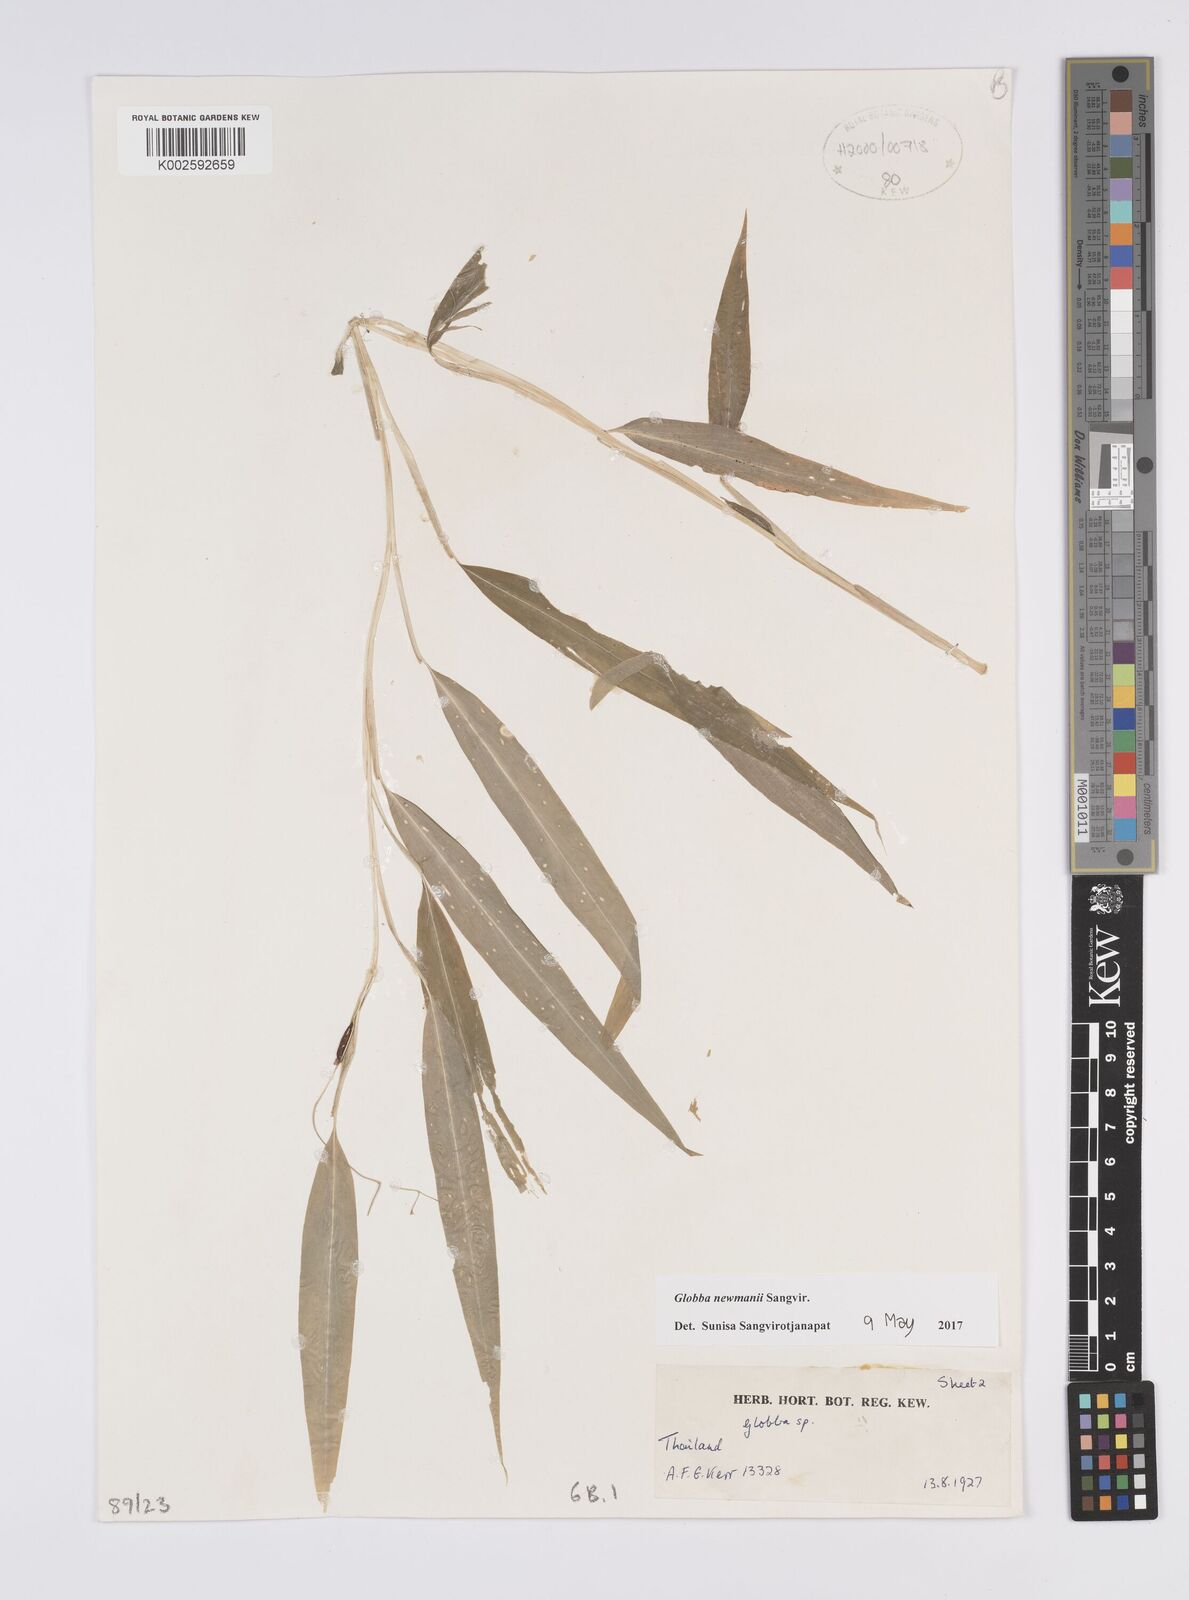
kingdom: Plantae
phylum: Tracheophyta
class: Liliopsida
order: Zingiberales
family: Zingiberaceae
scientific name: Zingiberaceae
